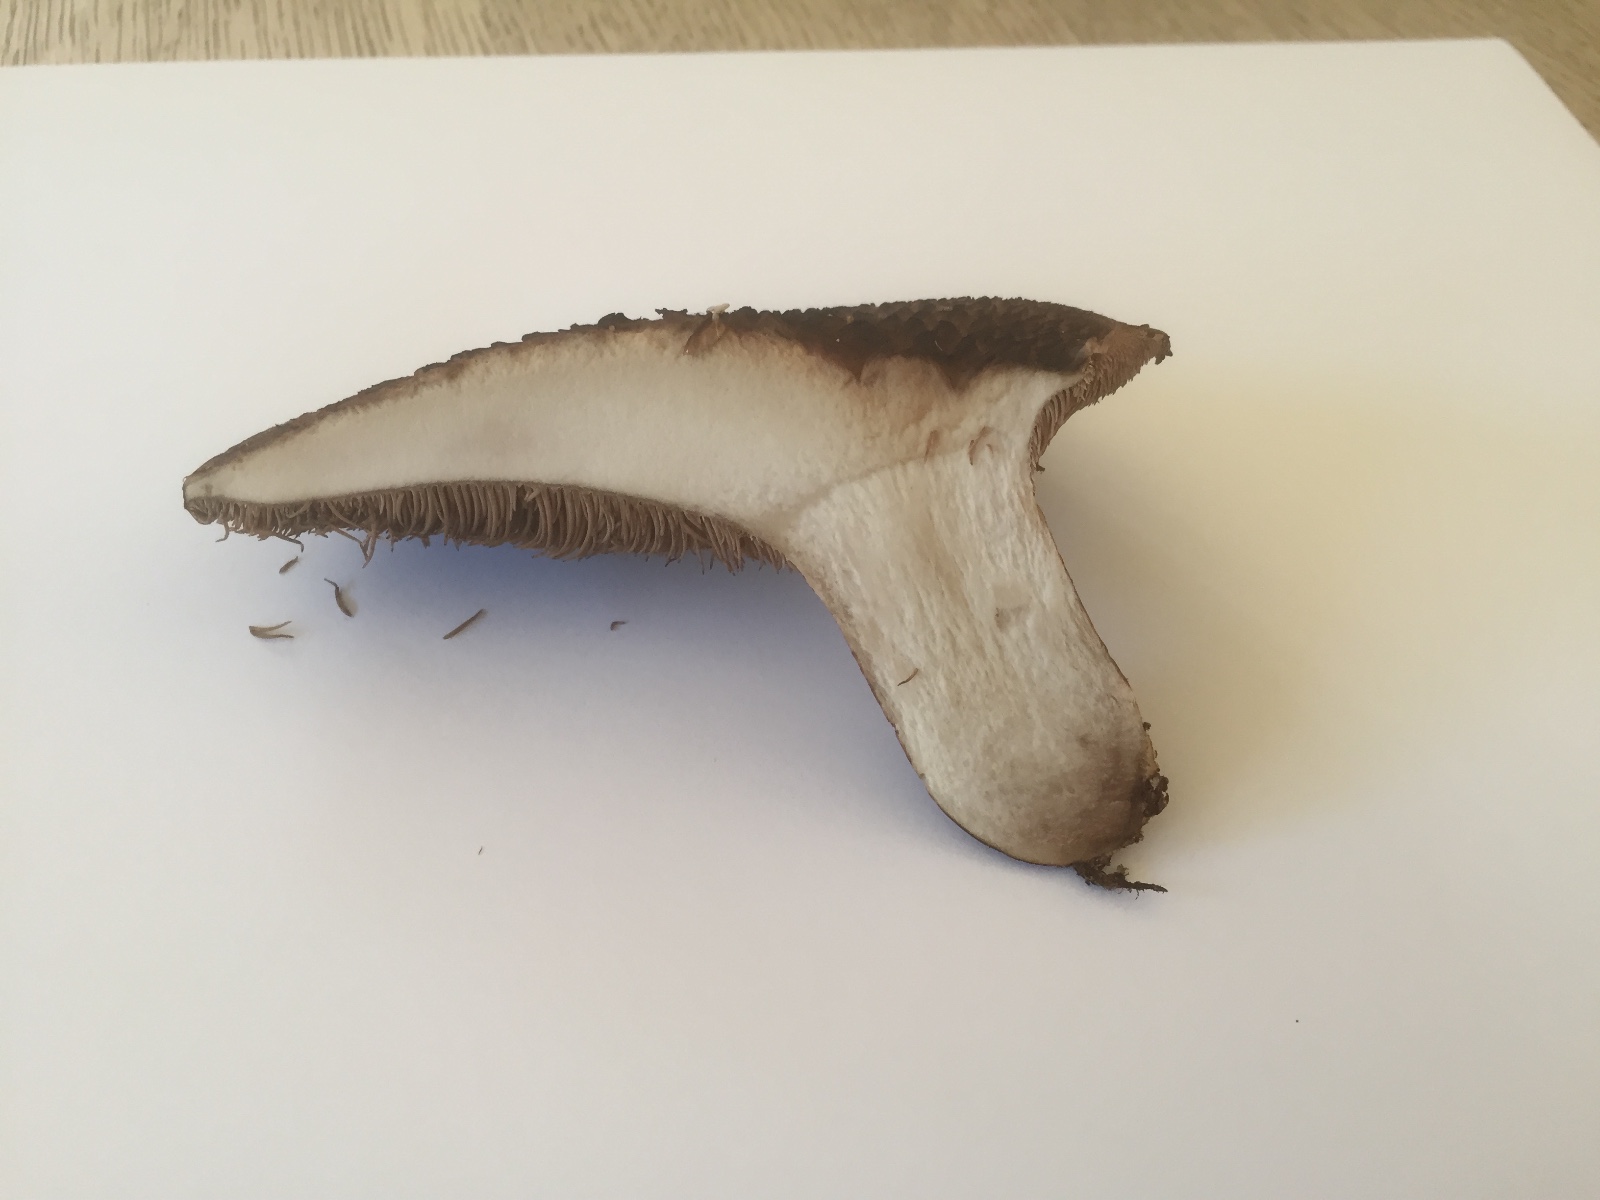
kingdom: Fungi
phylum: Basidiomycota
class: Agaricomycetes
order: Thelephorales
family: Bankeraceae
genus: Sarcodon
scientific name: Sarcodon squamosus
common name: småskællet kødpigsvamp
